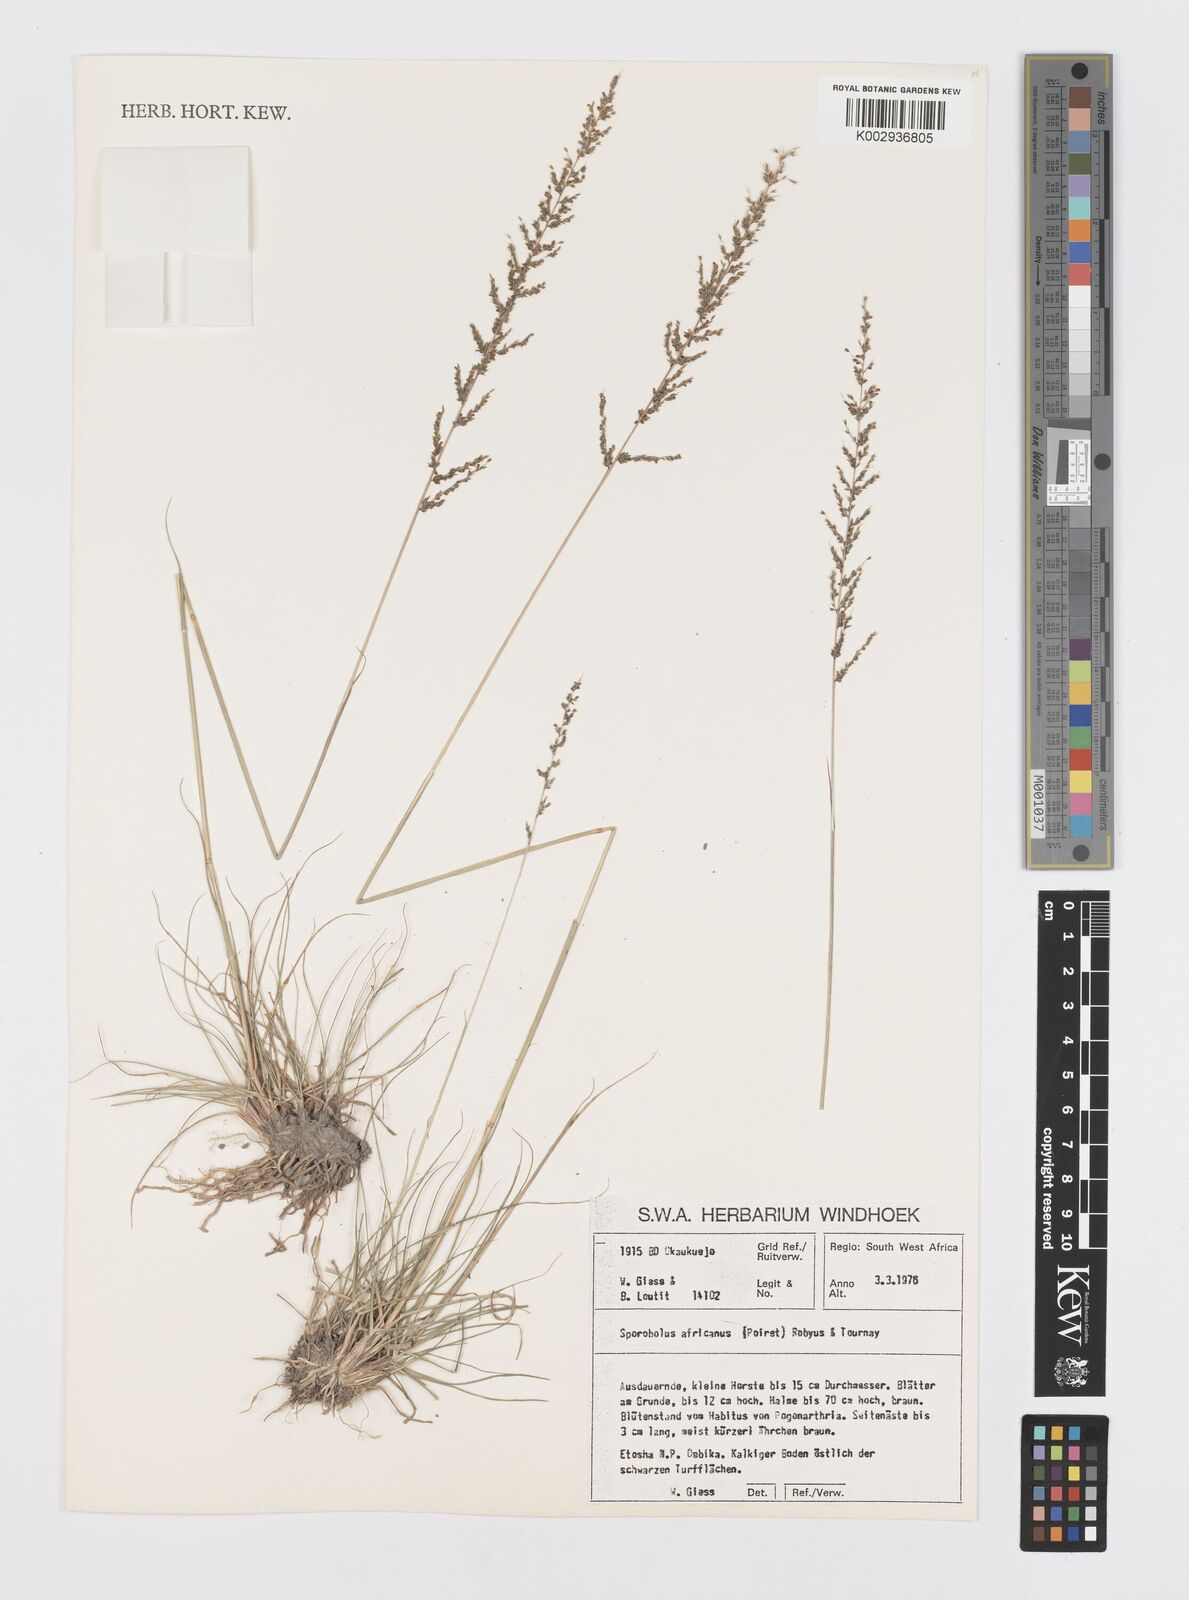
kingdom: Plantae
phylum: Tracheophyta
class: Liliopsida
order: Poales
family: Poaceae
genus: Sporobolus
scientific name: Sporobolus africanus
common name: African dropseed
